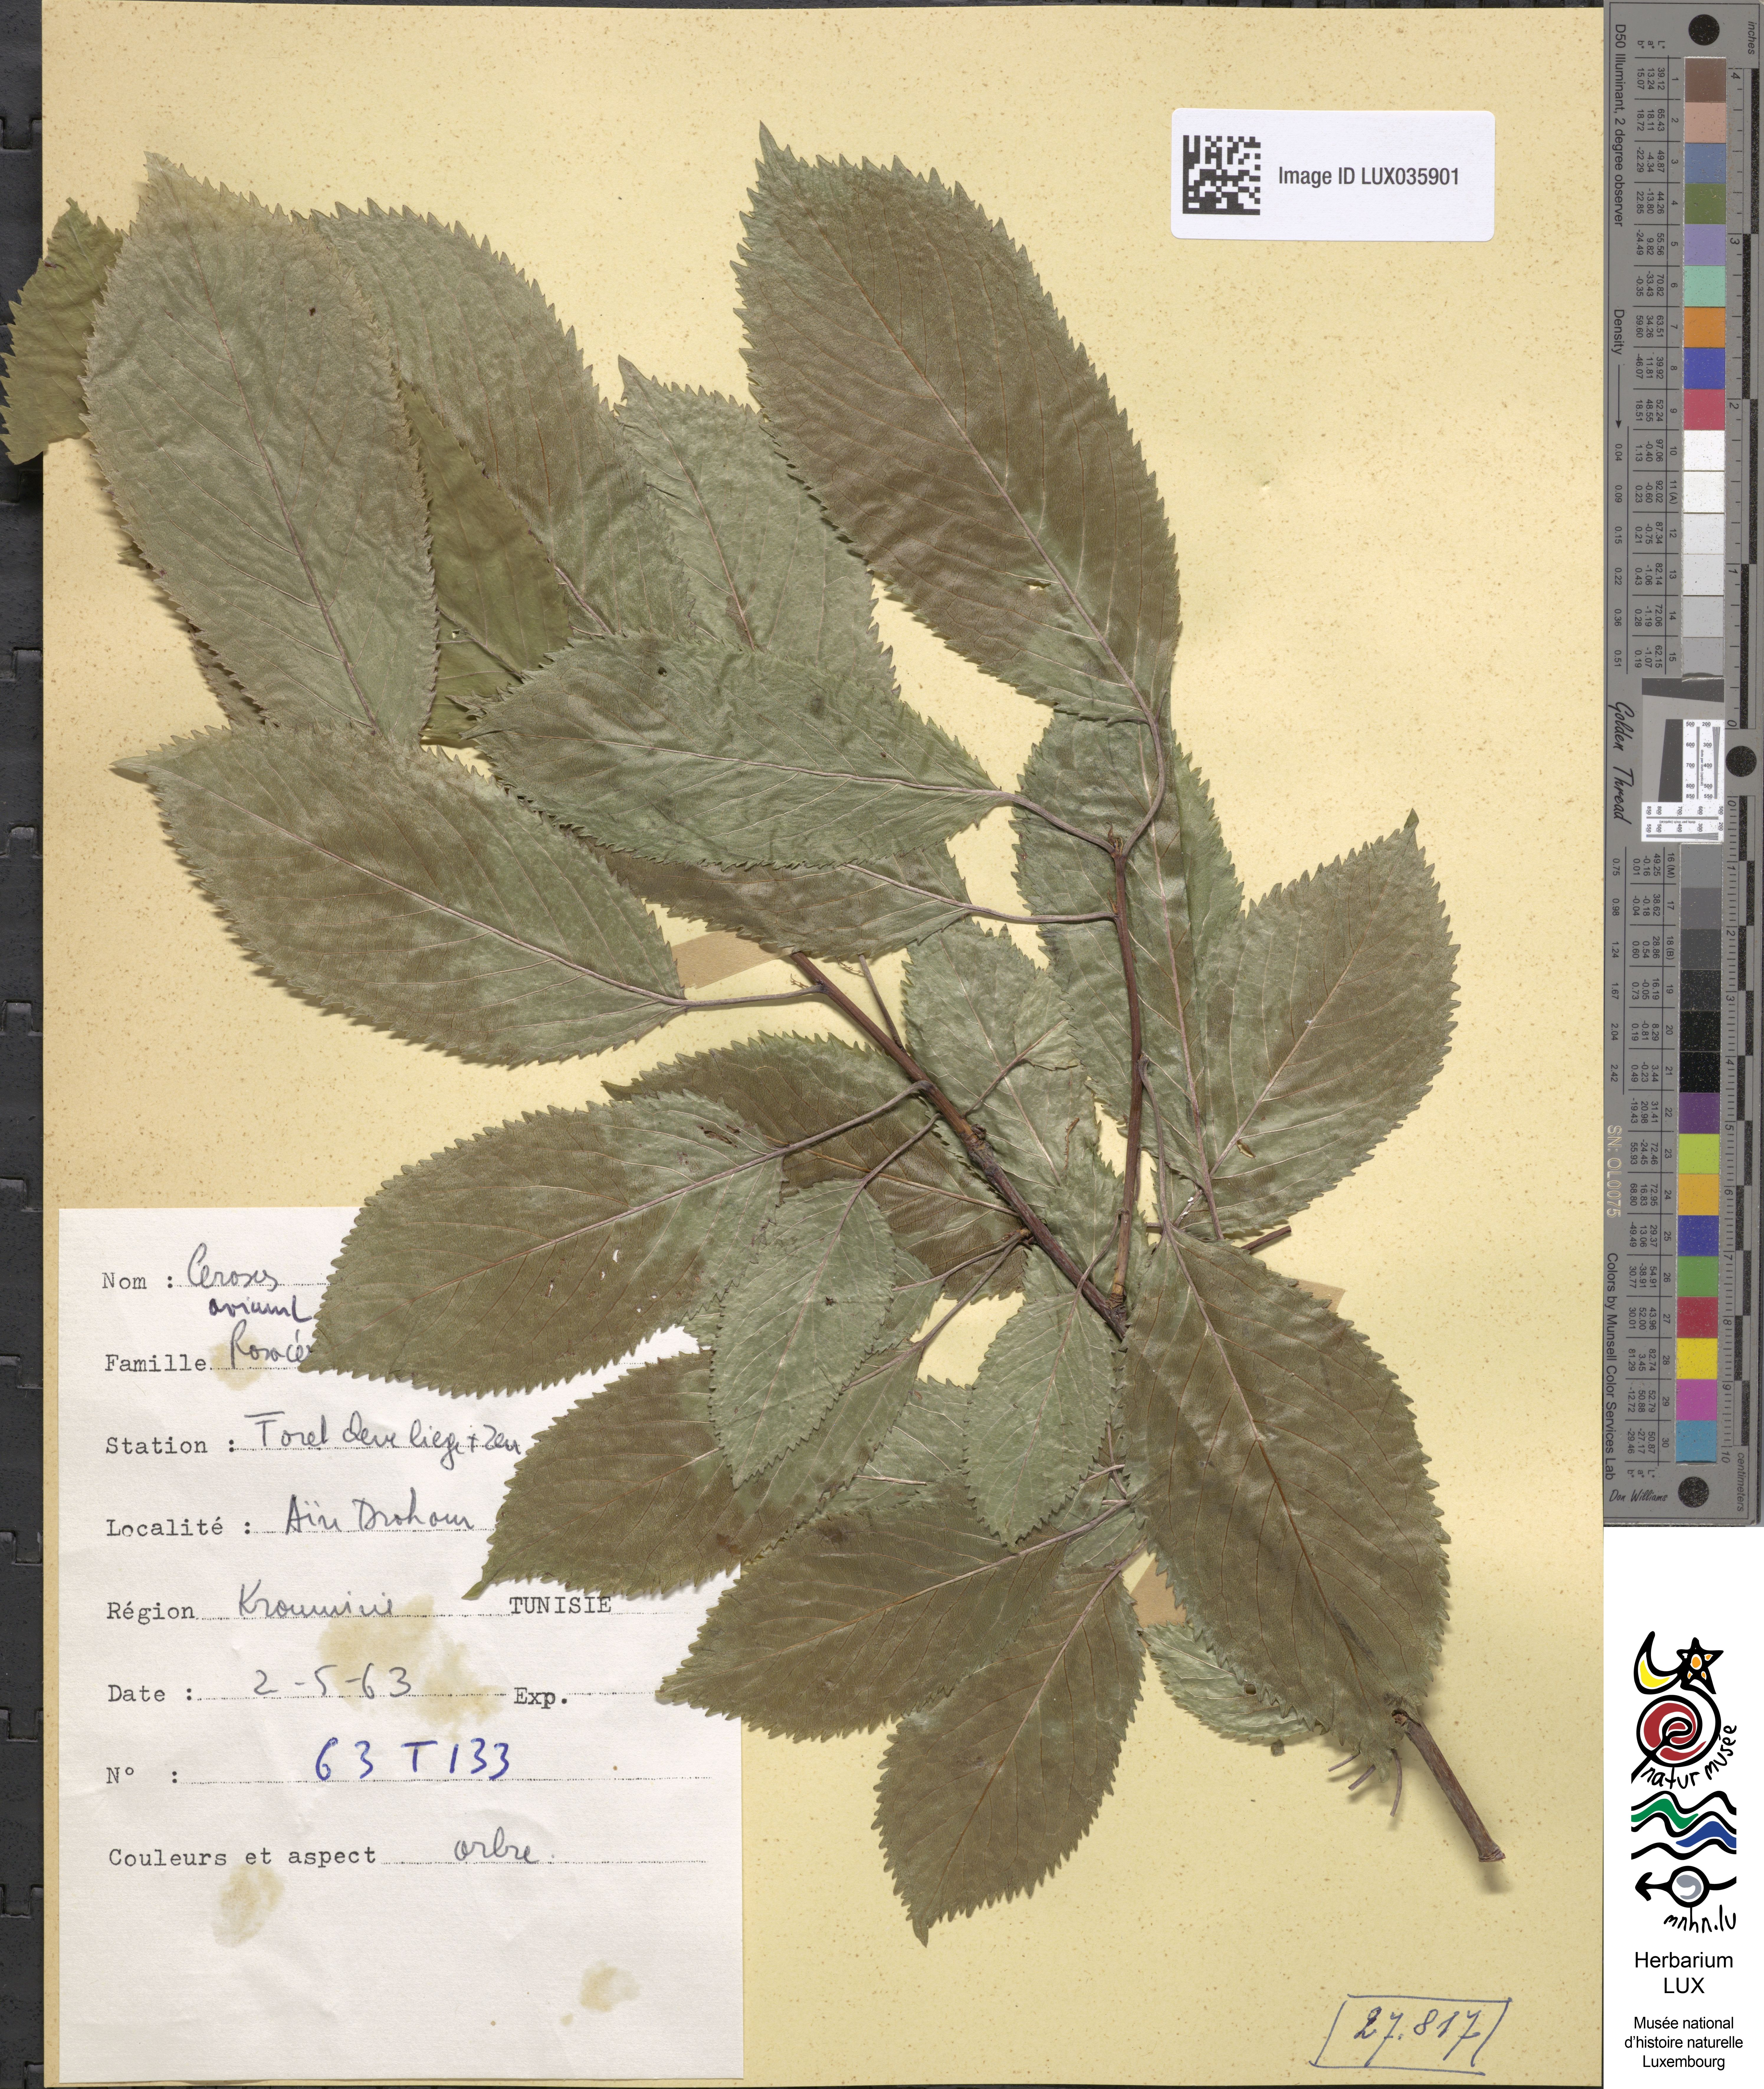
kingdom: Plantae
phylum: Tracheophyta
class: Magnoliopsida
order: Rosales
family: Rosaceae
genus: Prunus
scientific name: Prunus avium
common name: Sweet cherry
